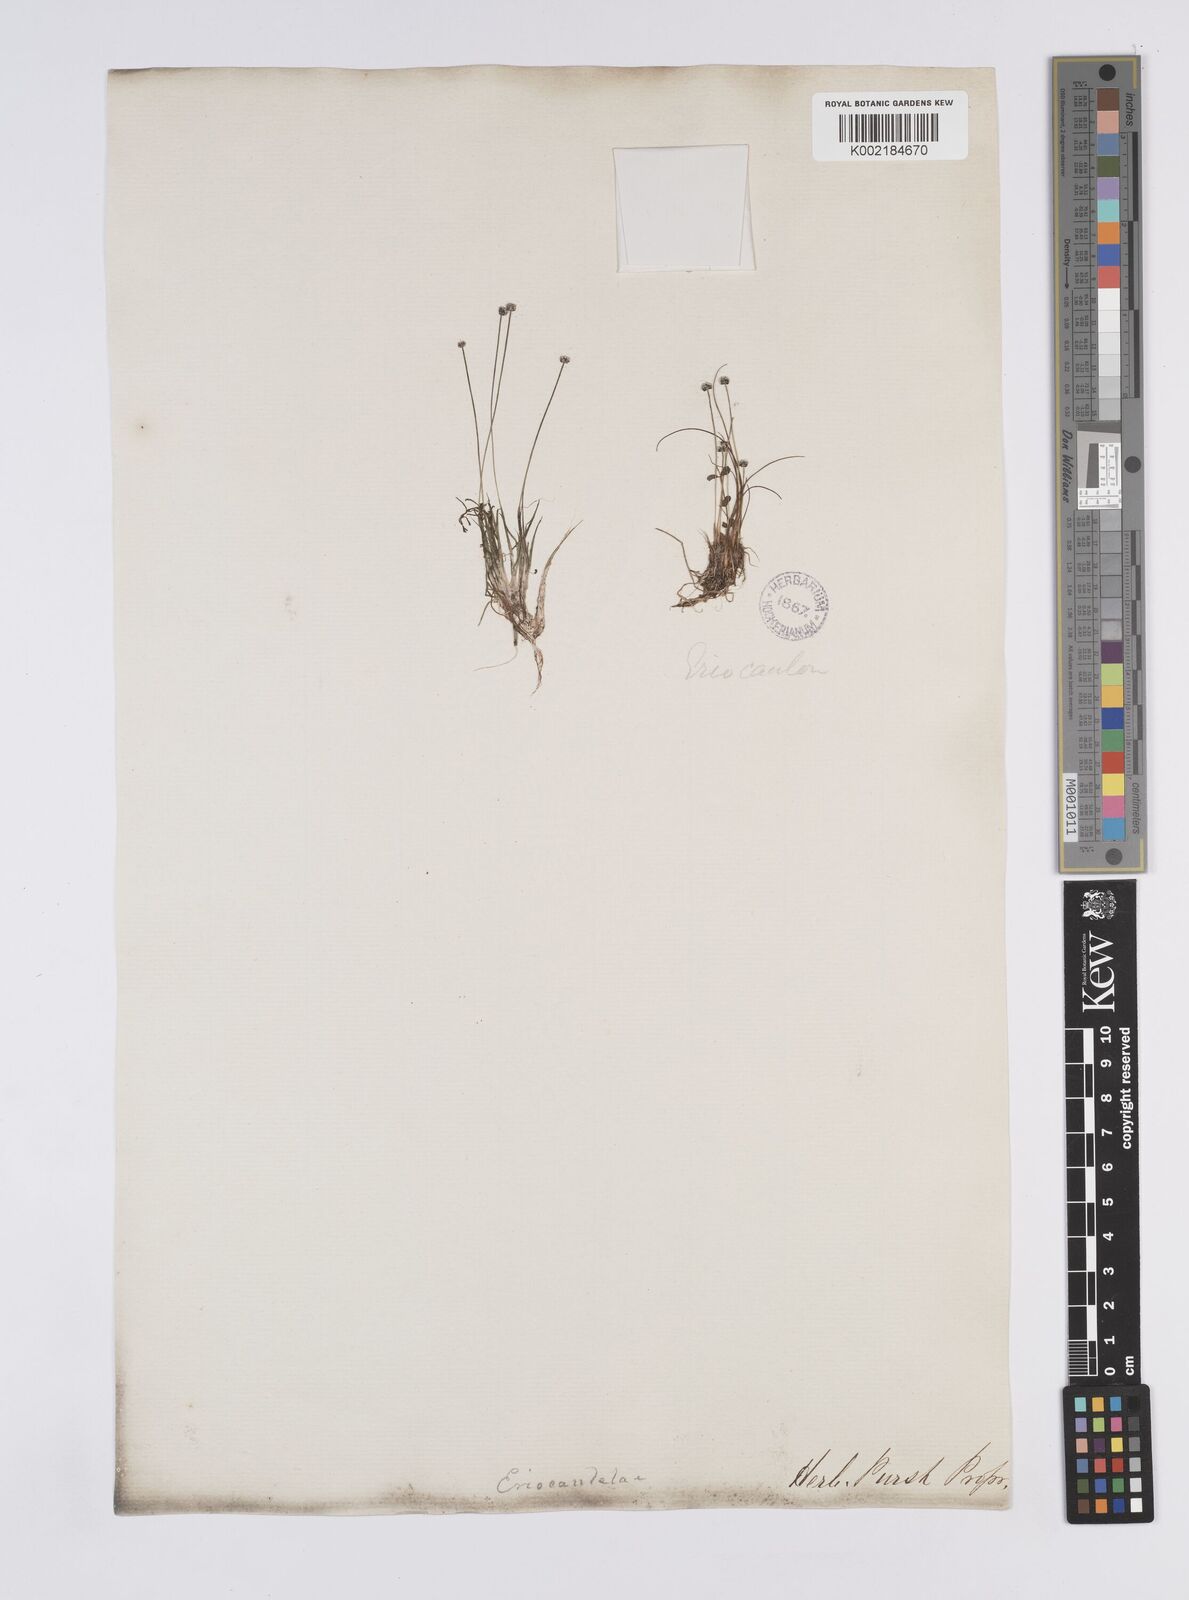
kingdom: Plantae
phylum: Tracheophyta
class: Liliopsida
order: Poales
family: Eriocaulaceae
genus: Eriocaulon
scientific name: Eriocaulon aquaticum
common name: Pipewort
